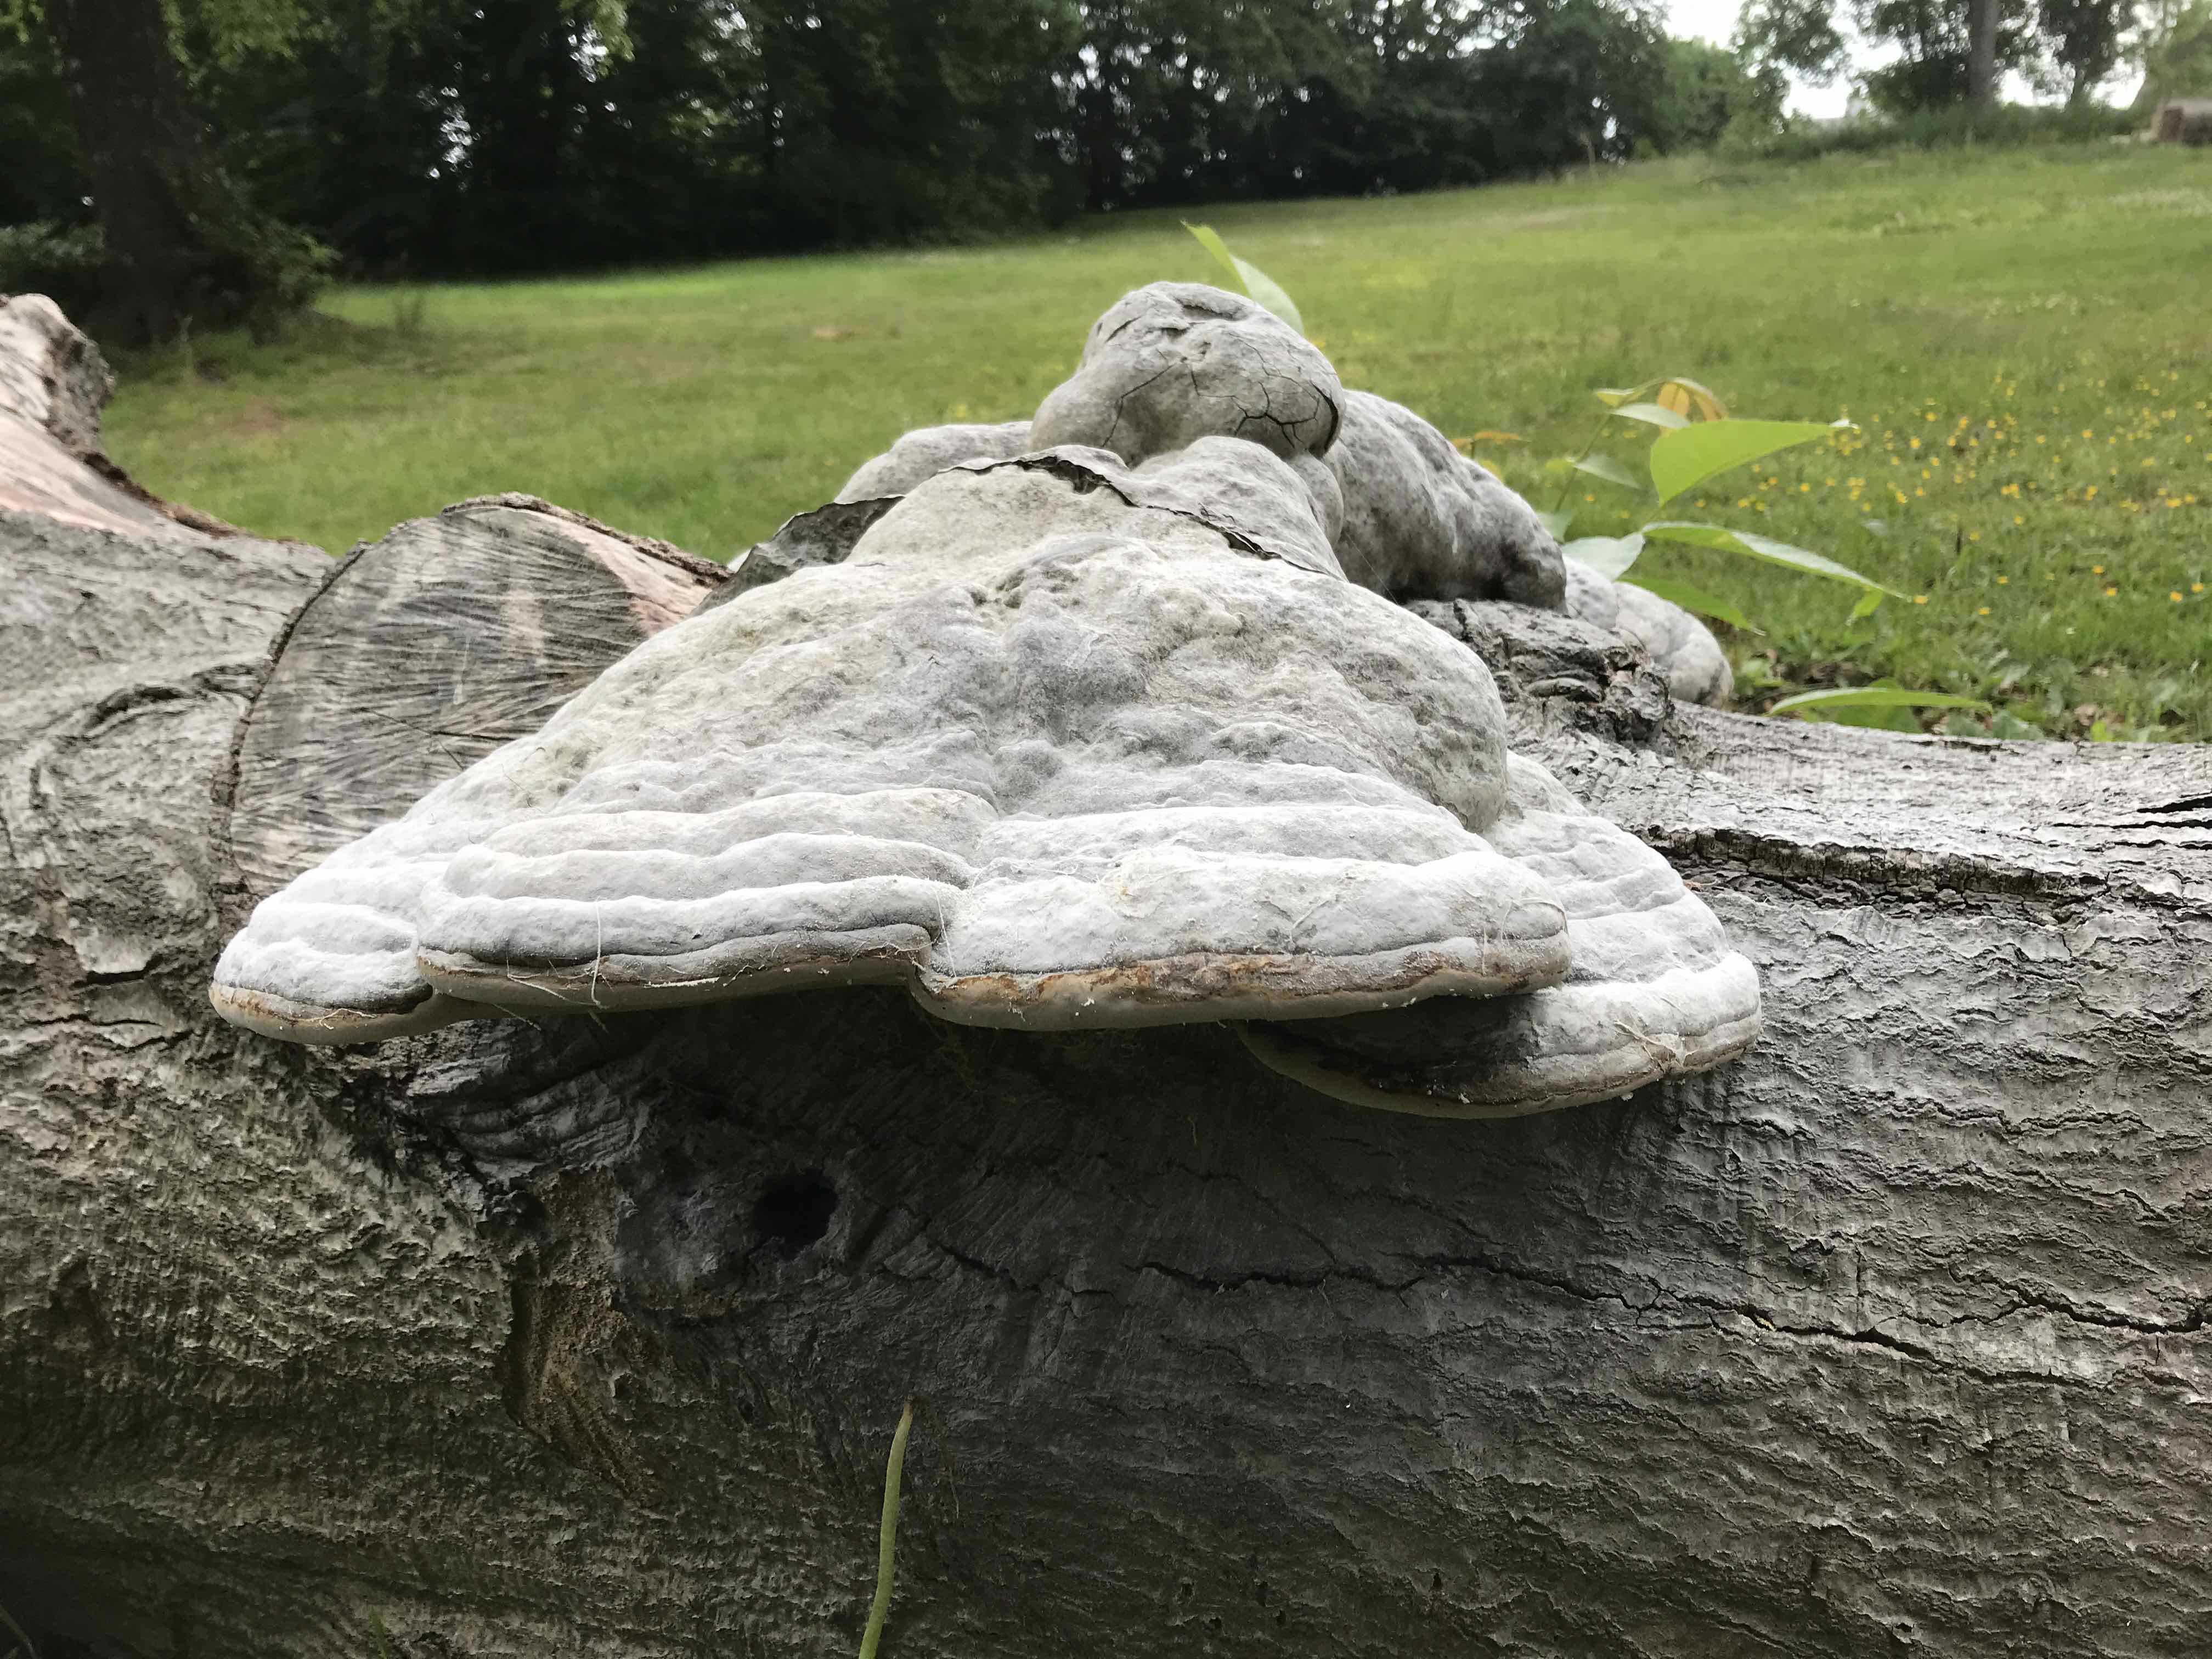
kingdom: Fungi
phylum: Basidiomycota
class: Agaricomycetes
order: Polyporales
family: Polyporaceae
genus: Fomes
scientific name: Fomes fomentarius
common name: tøndersvamp
